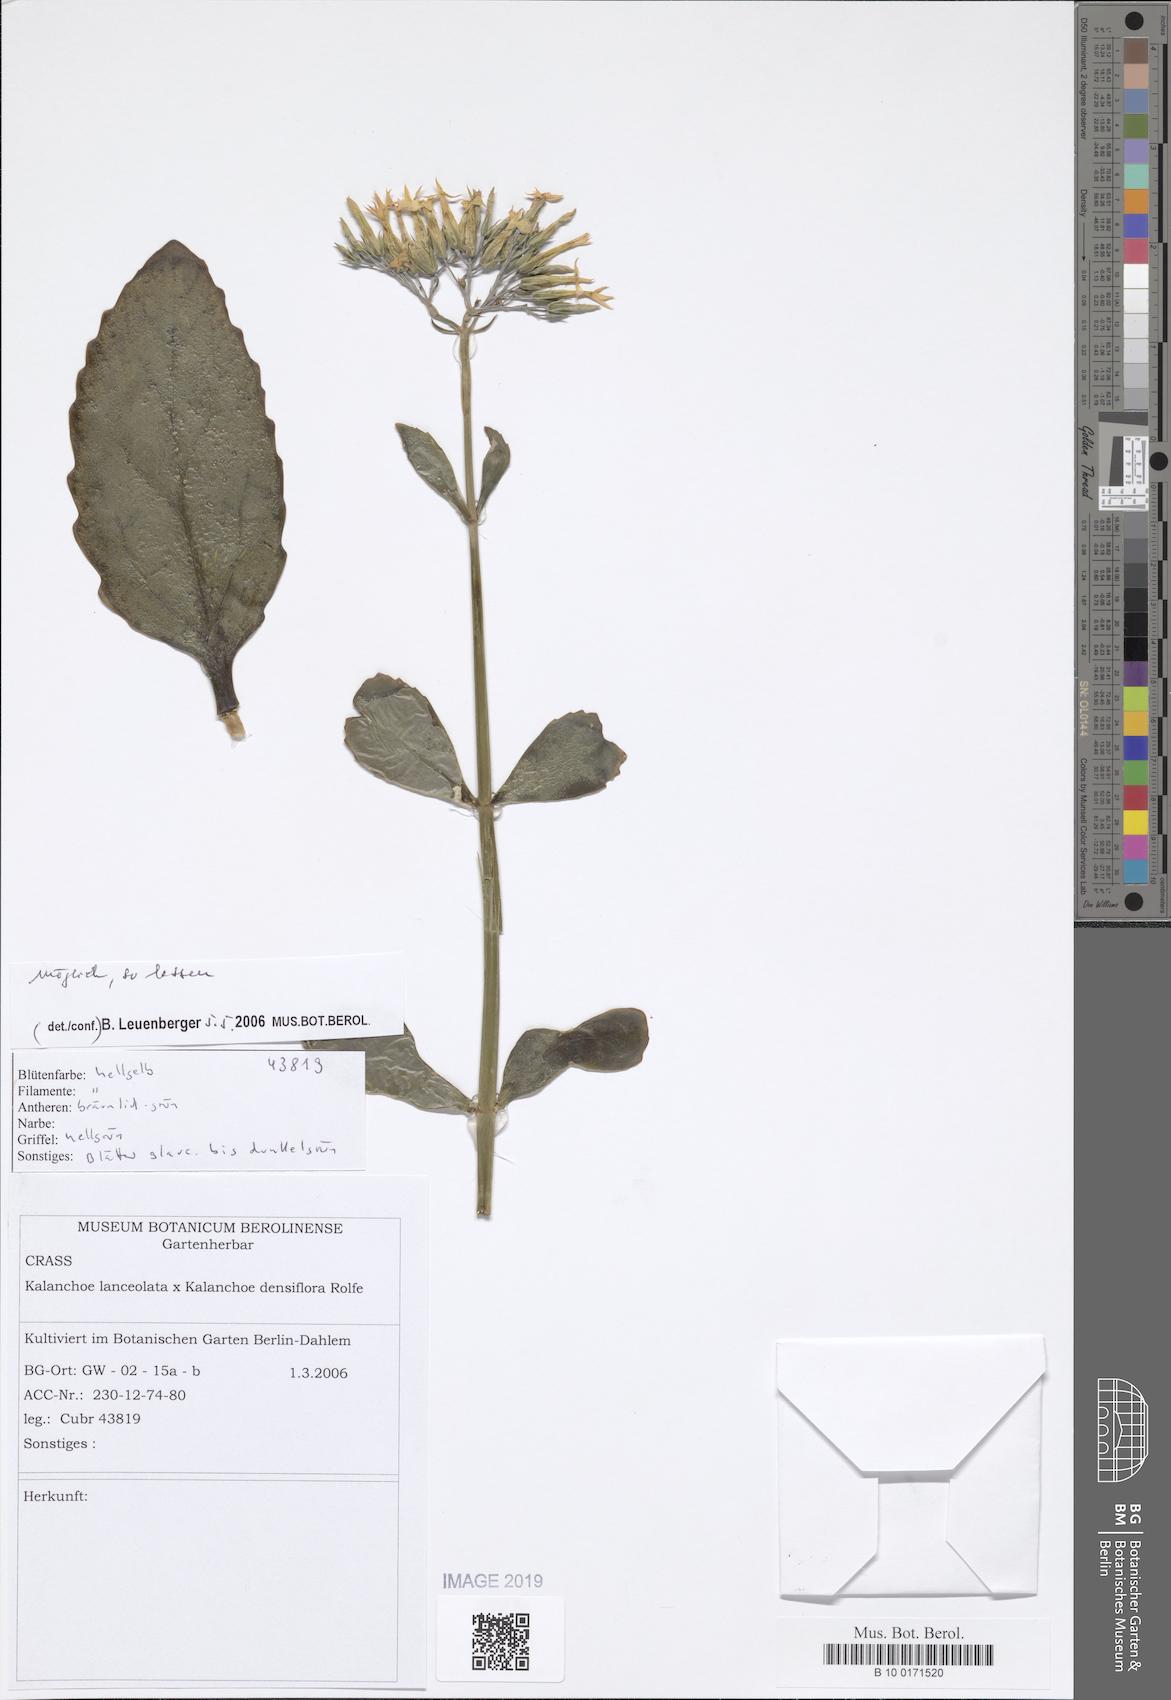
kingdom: Plantae
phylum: Tracheophyta
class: Magnoliopsida
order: Saxifragales
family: Crassulaceae
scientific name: Crassulaceae
